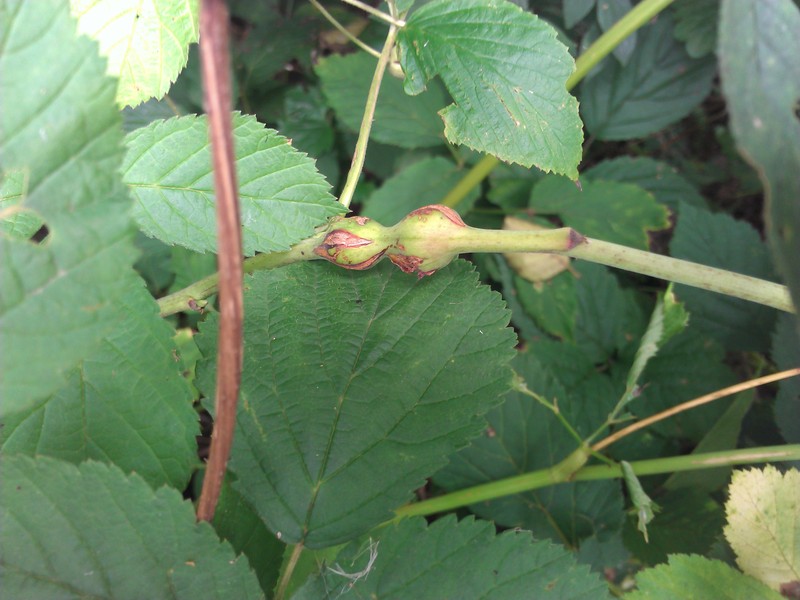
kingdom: Animalia
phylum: Arthropoda
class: Insecta
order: Diptera
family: Cecidomyiidae
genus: Lasioptera
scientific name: Lasioptera rubi
